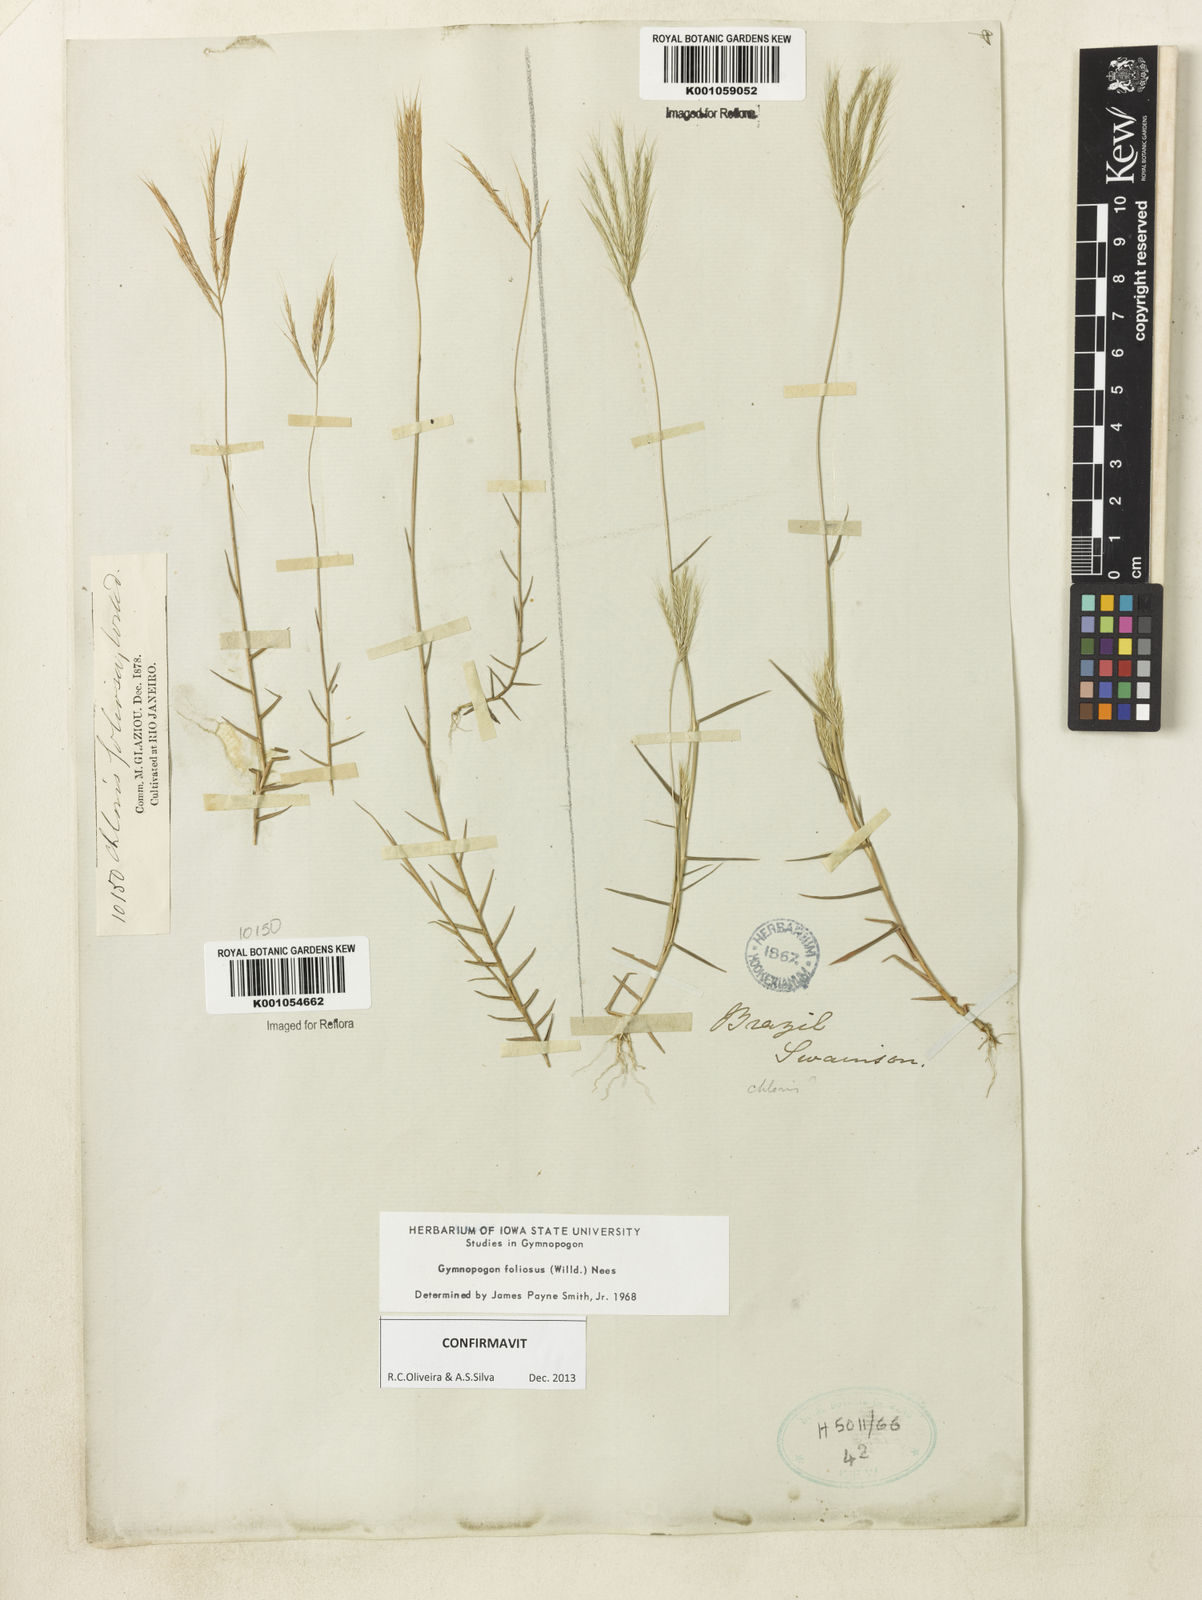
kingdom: Plantae
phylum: Tracheophyta
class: Liliopsida
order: Poales
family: Poaceae
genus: Gymnopogon
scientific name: Gymnopogon foliosus
